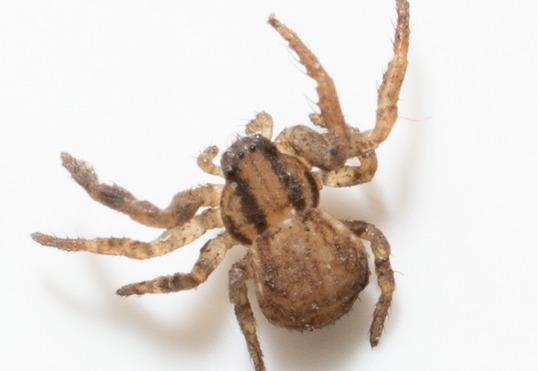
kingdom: Animalia
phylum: Arthropoda
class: Arachnida
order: Araneae
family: Thomisidae
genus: Ozyptila
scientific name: Ozyptila
